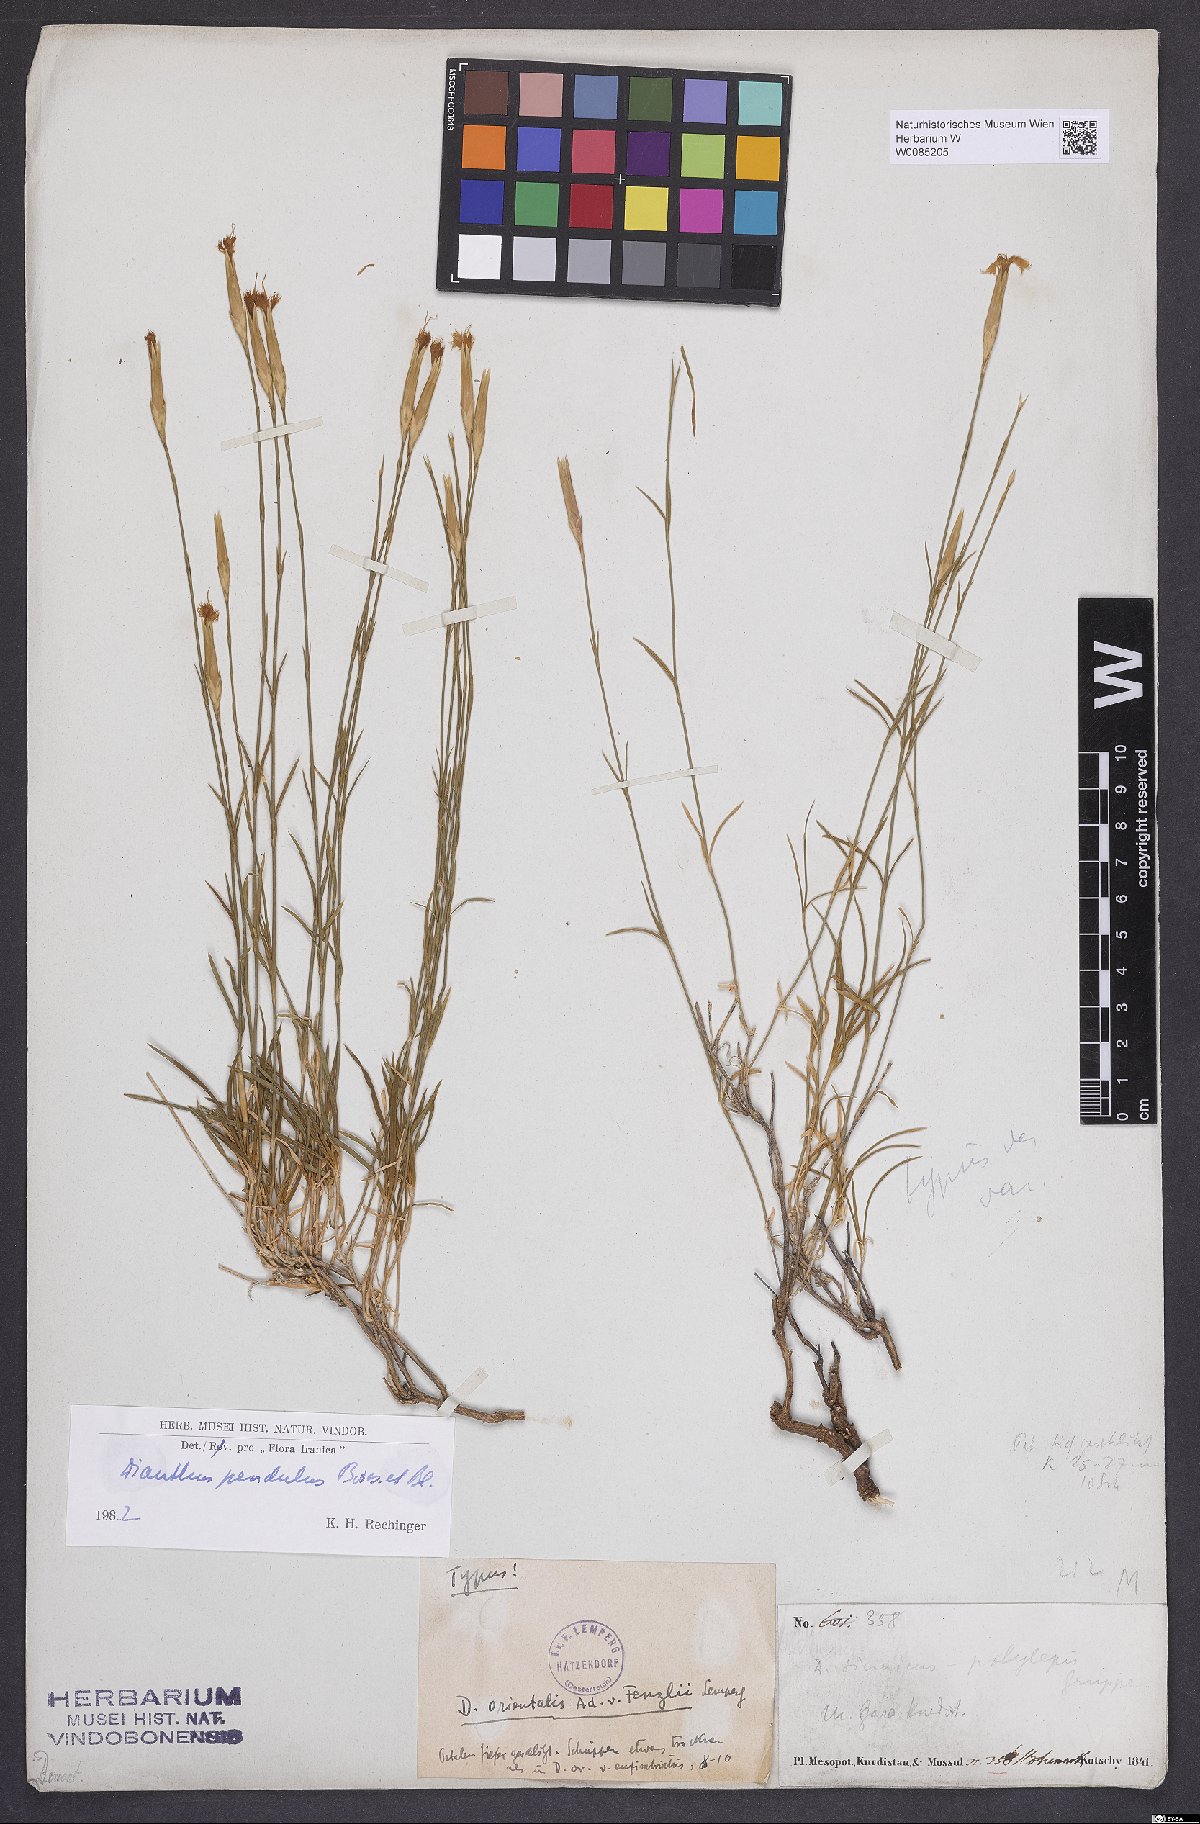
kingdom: Plantae
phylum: Tracheophyta
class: Magnoliopsida
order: Caryophyllales
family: Caryophyllaceae
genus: Dianthus
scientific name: Dianthus pendulus
